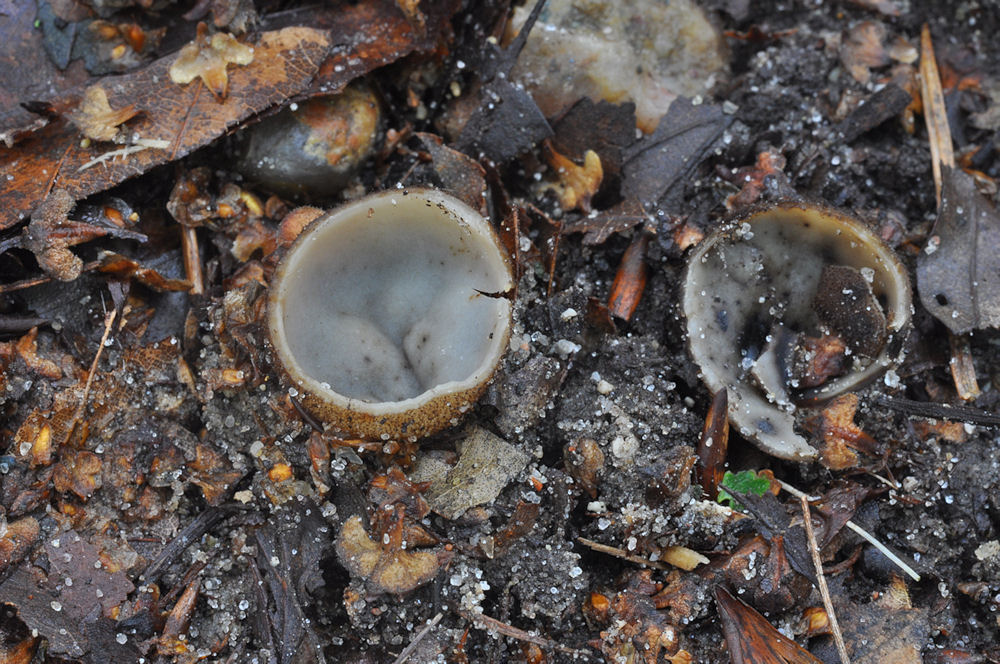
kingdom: Fungi
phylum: Ascomycota
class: Pezizomycetes
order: Pezizales
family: Pyronemataceae
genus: Humaria
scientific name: Humaria hemisphaerica
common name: halvkugleformet børstebæger
